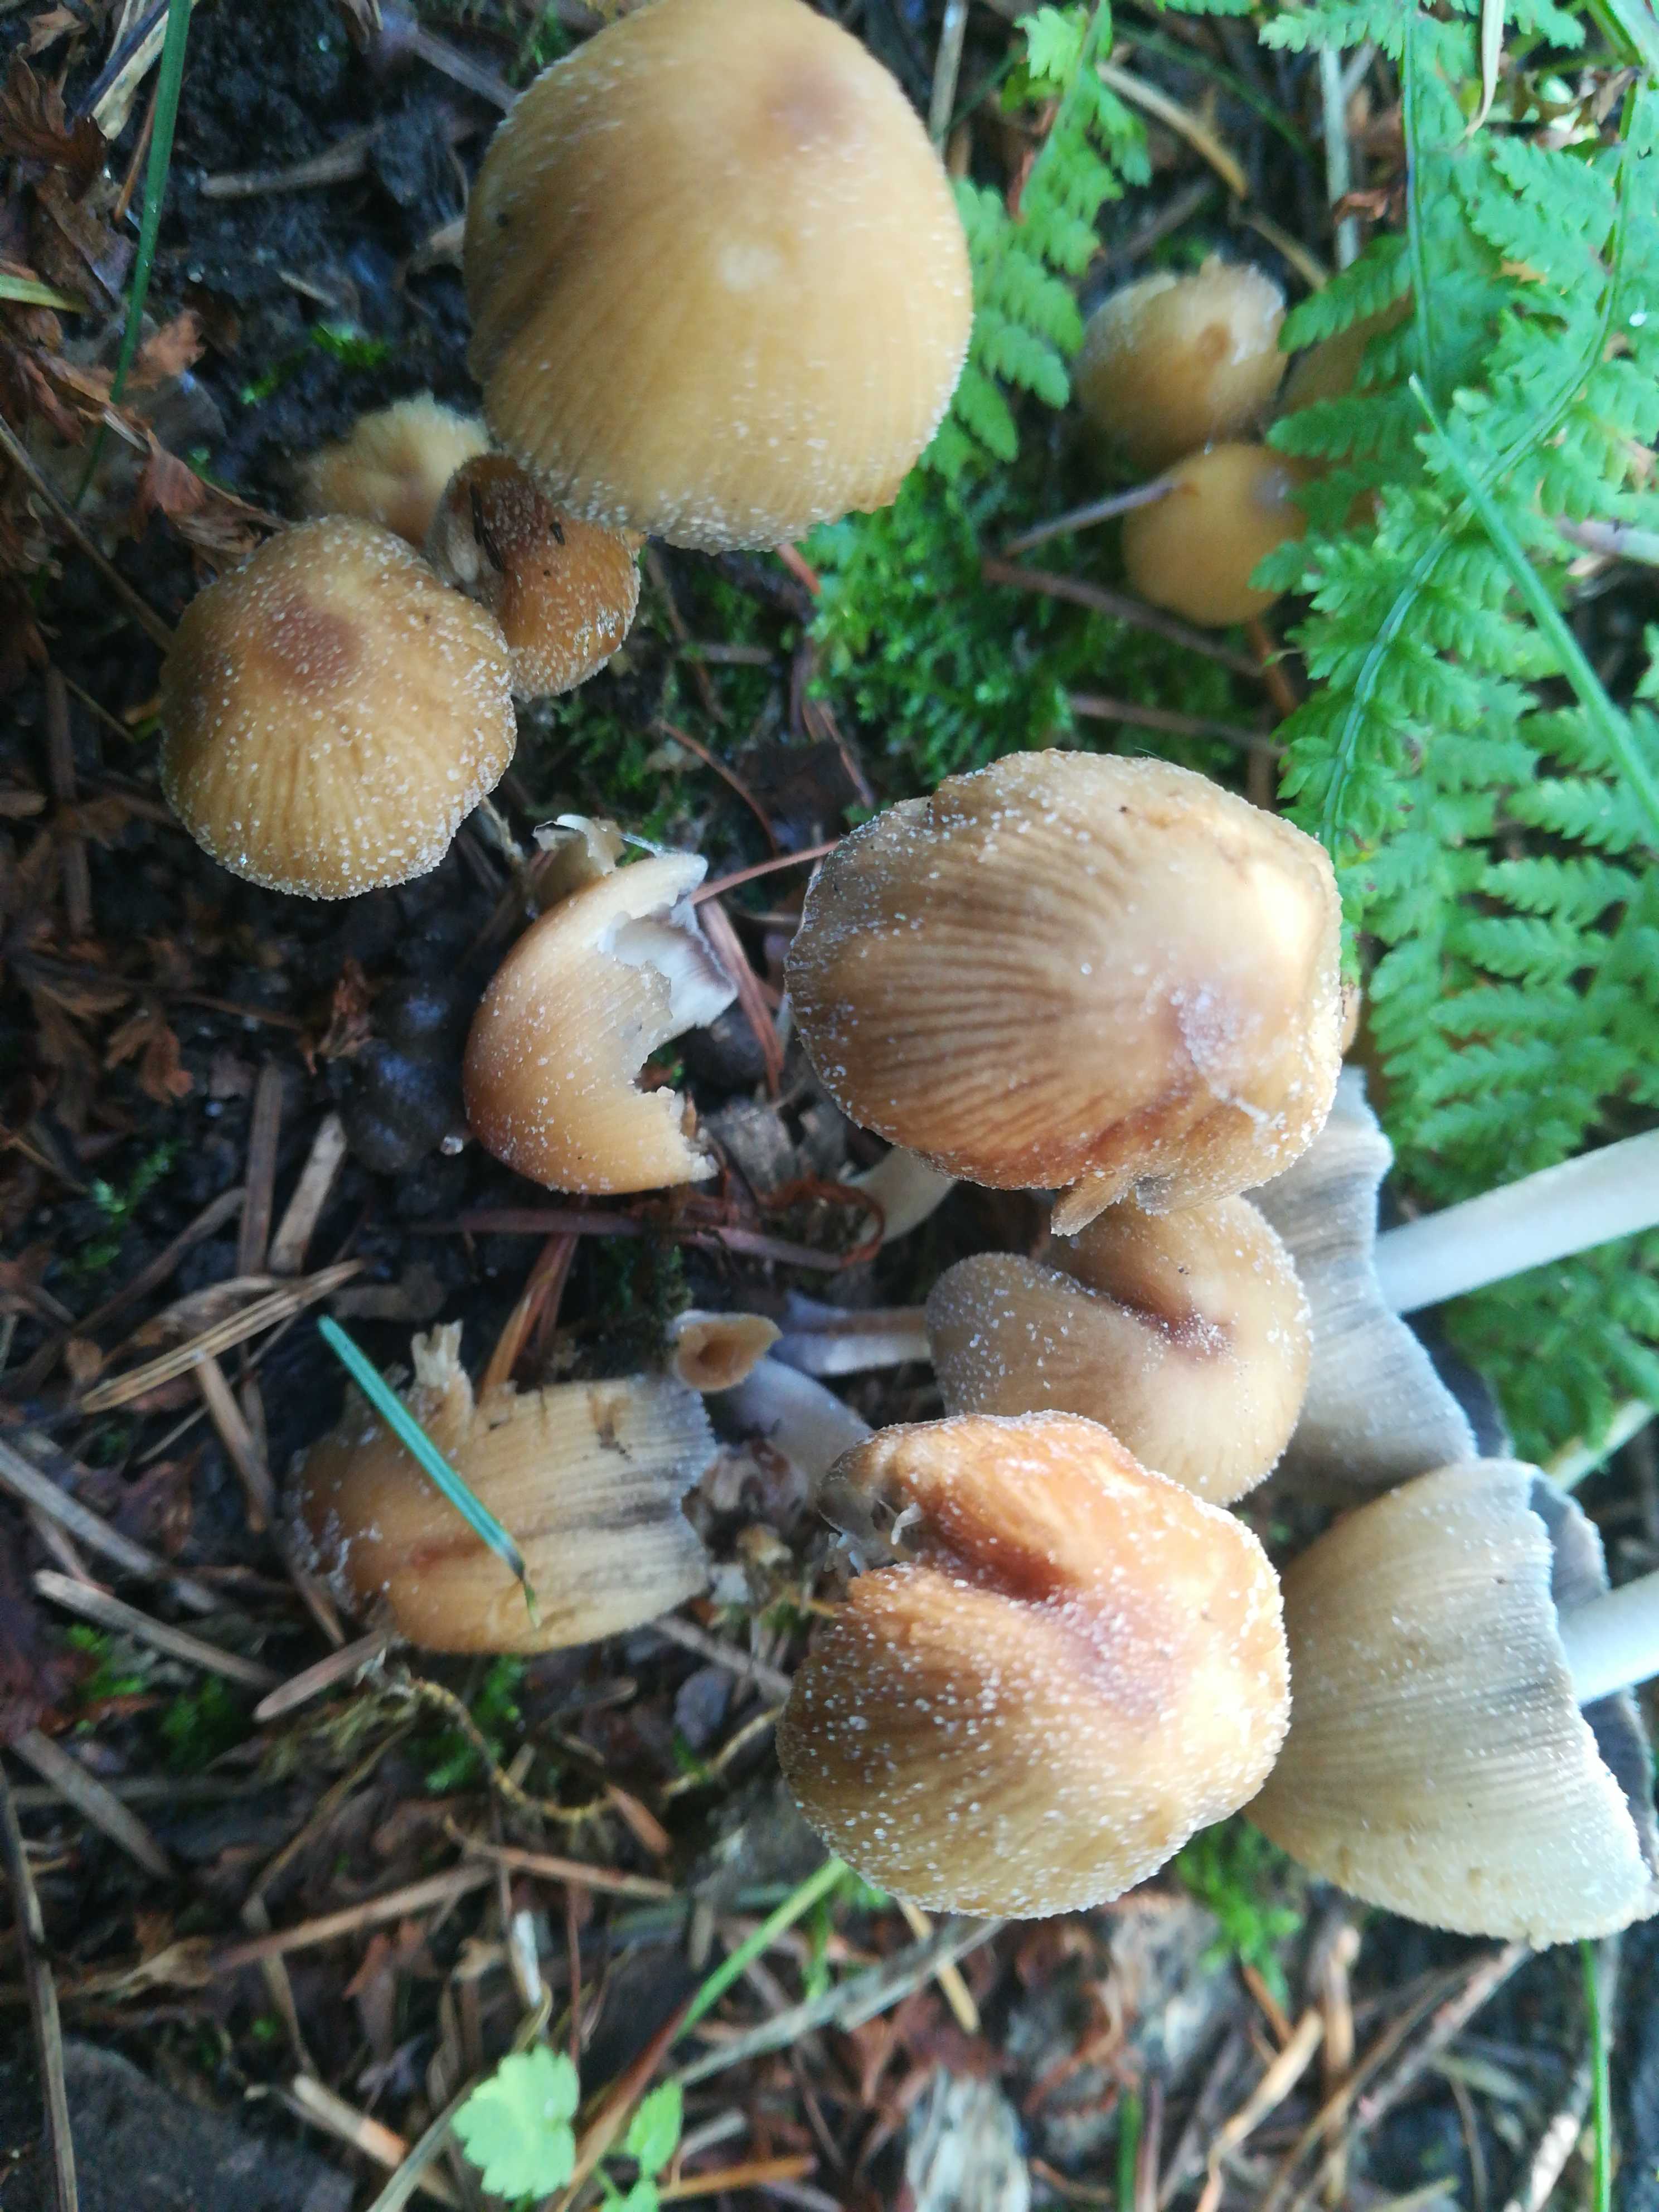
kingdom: Fungi
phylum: Basidiomycota
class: Agaricomycetes
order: Agaricales
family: Psathyrellaceae
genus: Coprinellus
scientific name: Coprinellus micaceus
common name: glimmer-blækhat
